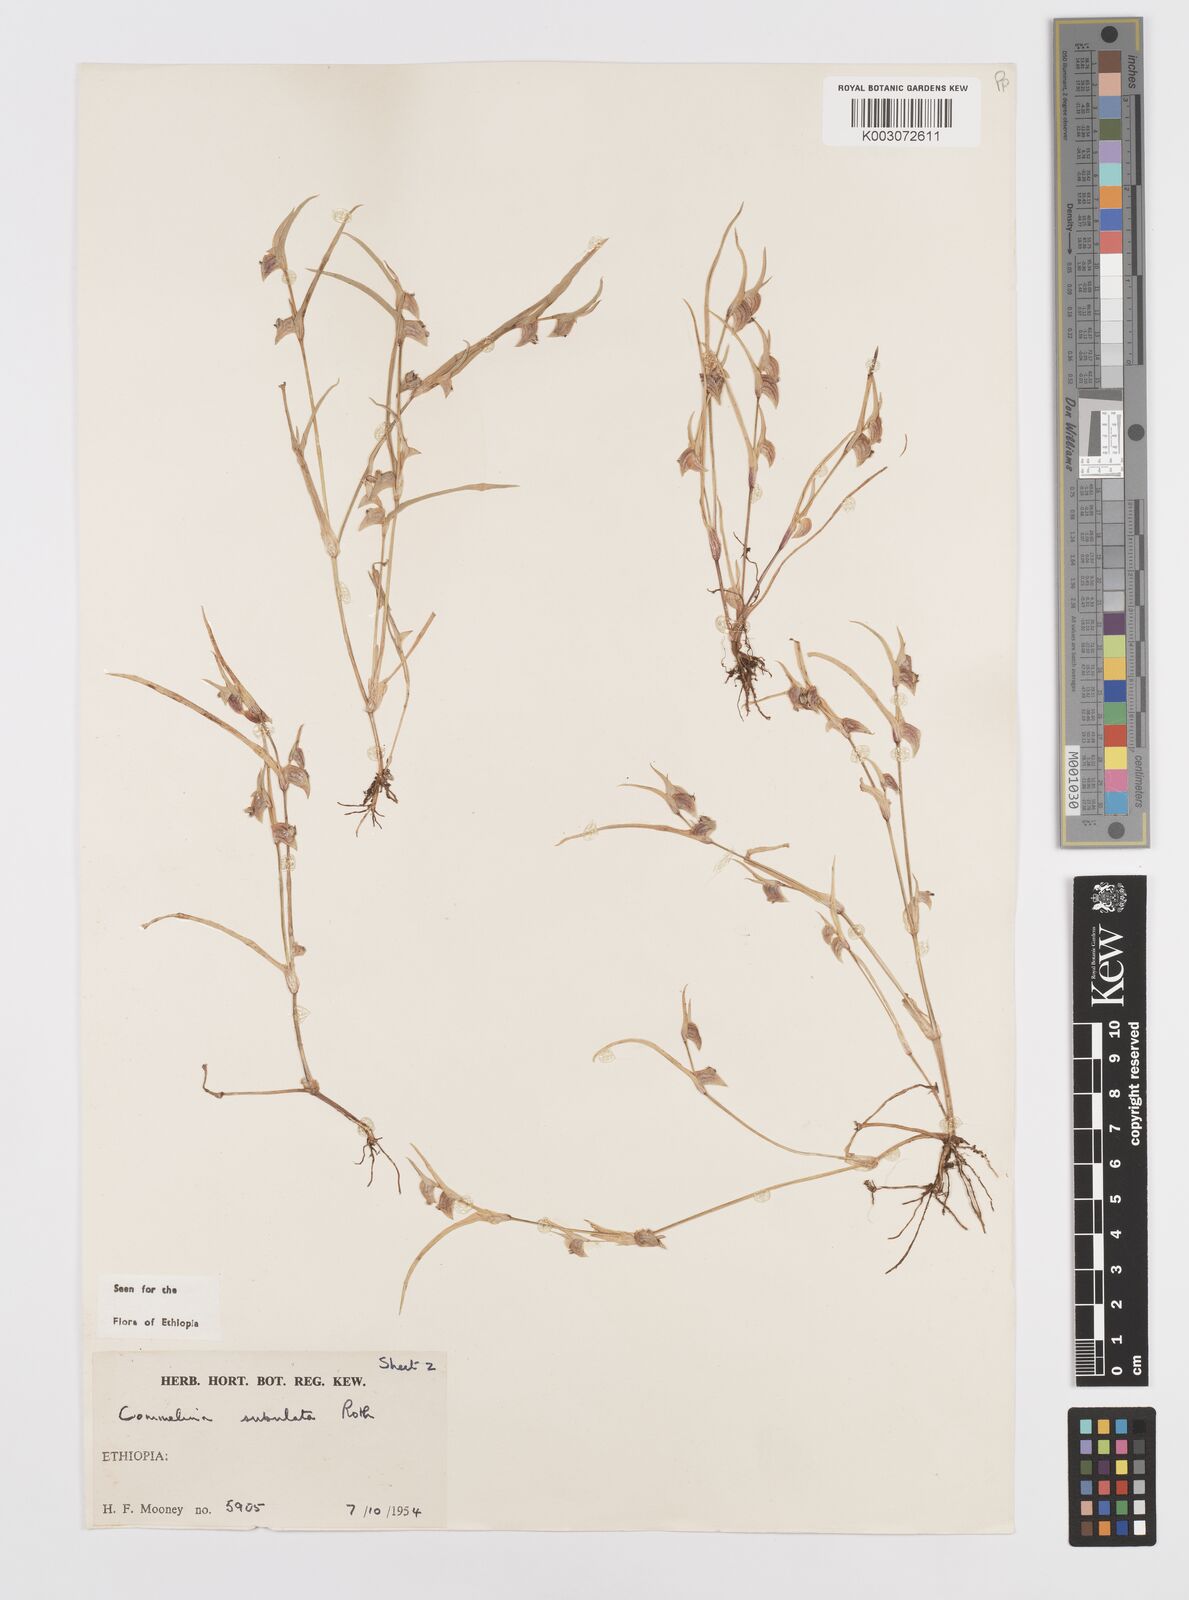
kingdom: Plantae
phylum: Tracheophyta
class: Liliopsida
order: Commelinales
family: Commelinaceae
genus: Commelina
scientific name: Commelina subulata
